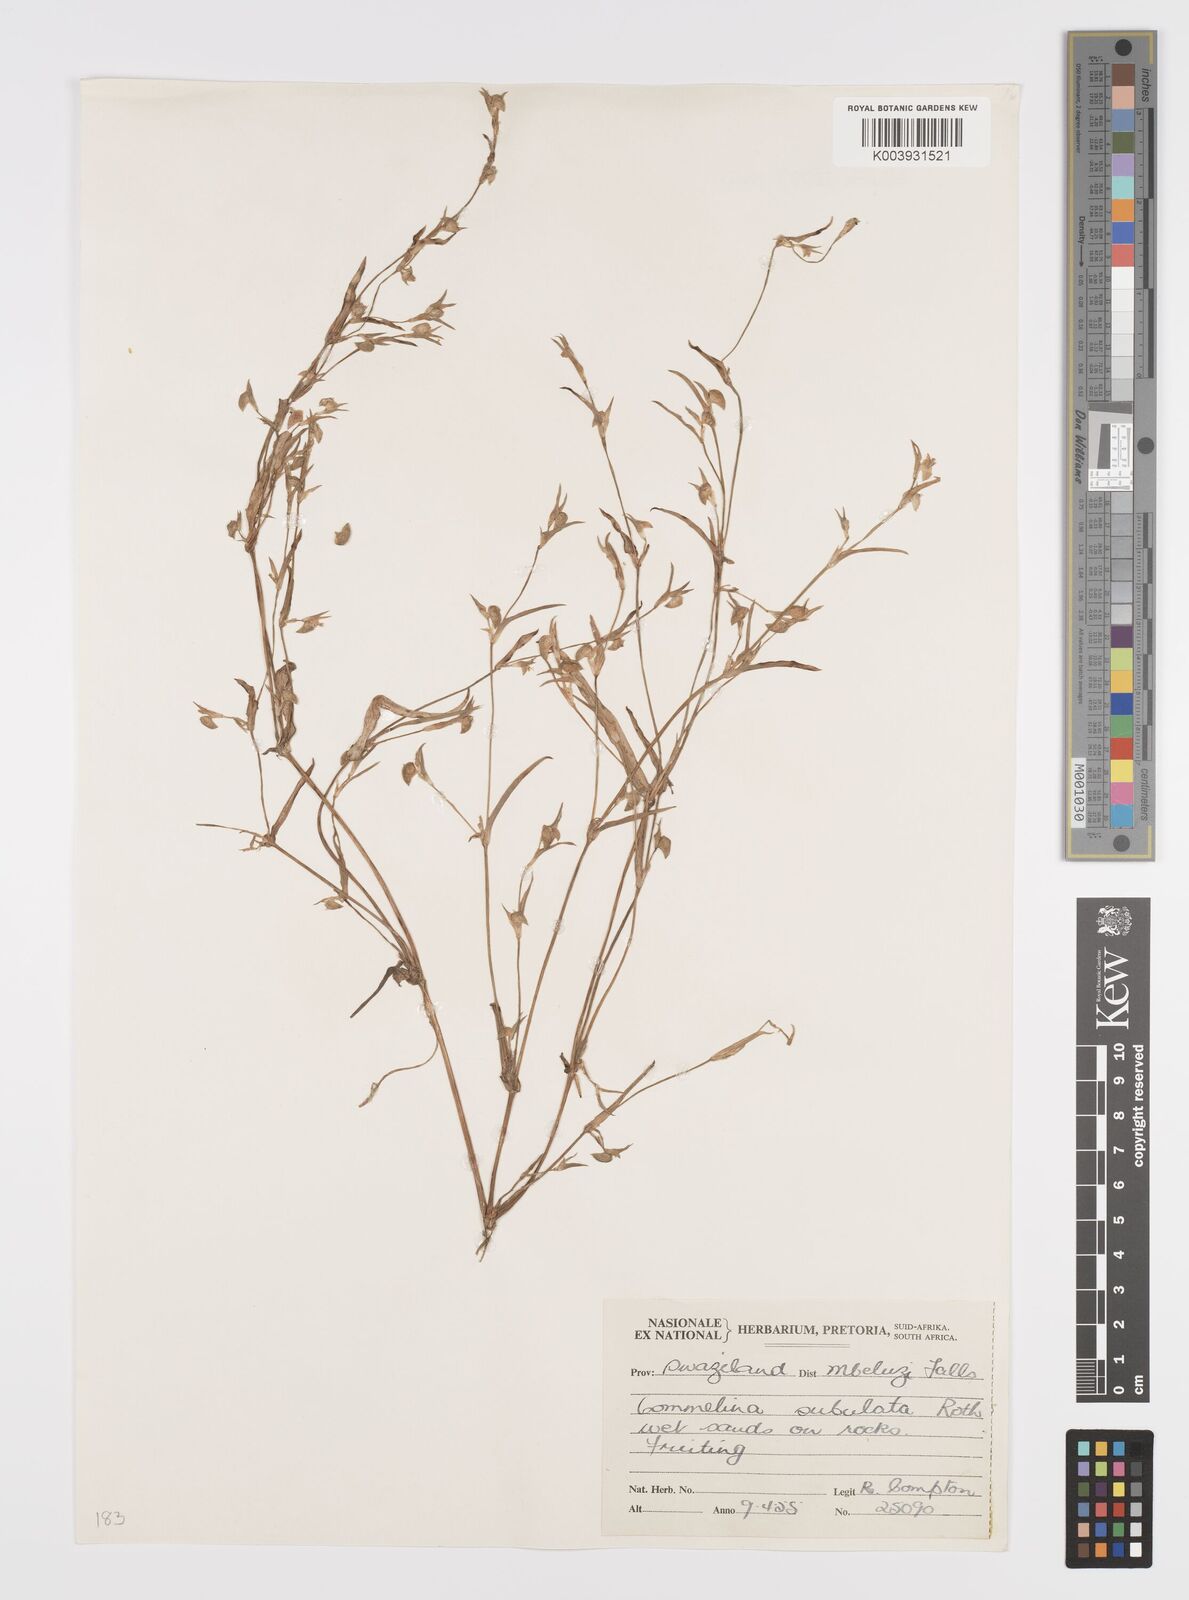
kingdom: Plantae
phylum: Tracheophyta
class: Liliopsida
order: Commelinales
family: Commelinaceae
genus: Commelina
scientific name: Commelina subulata
